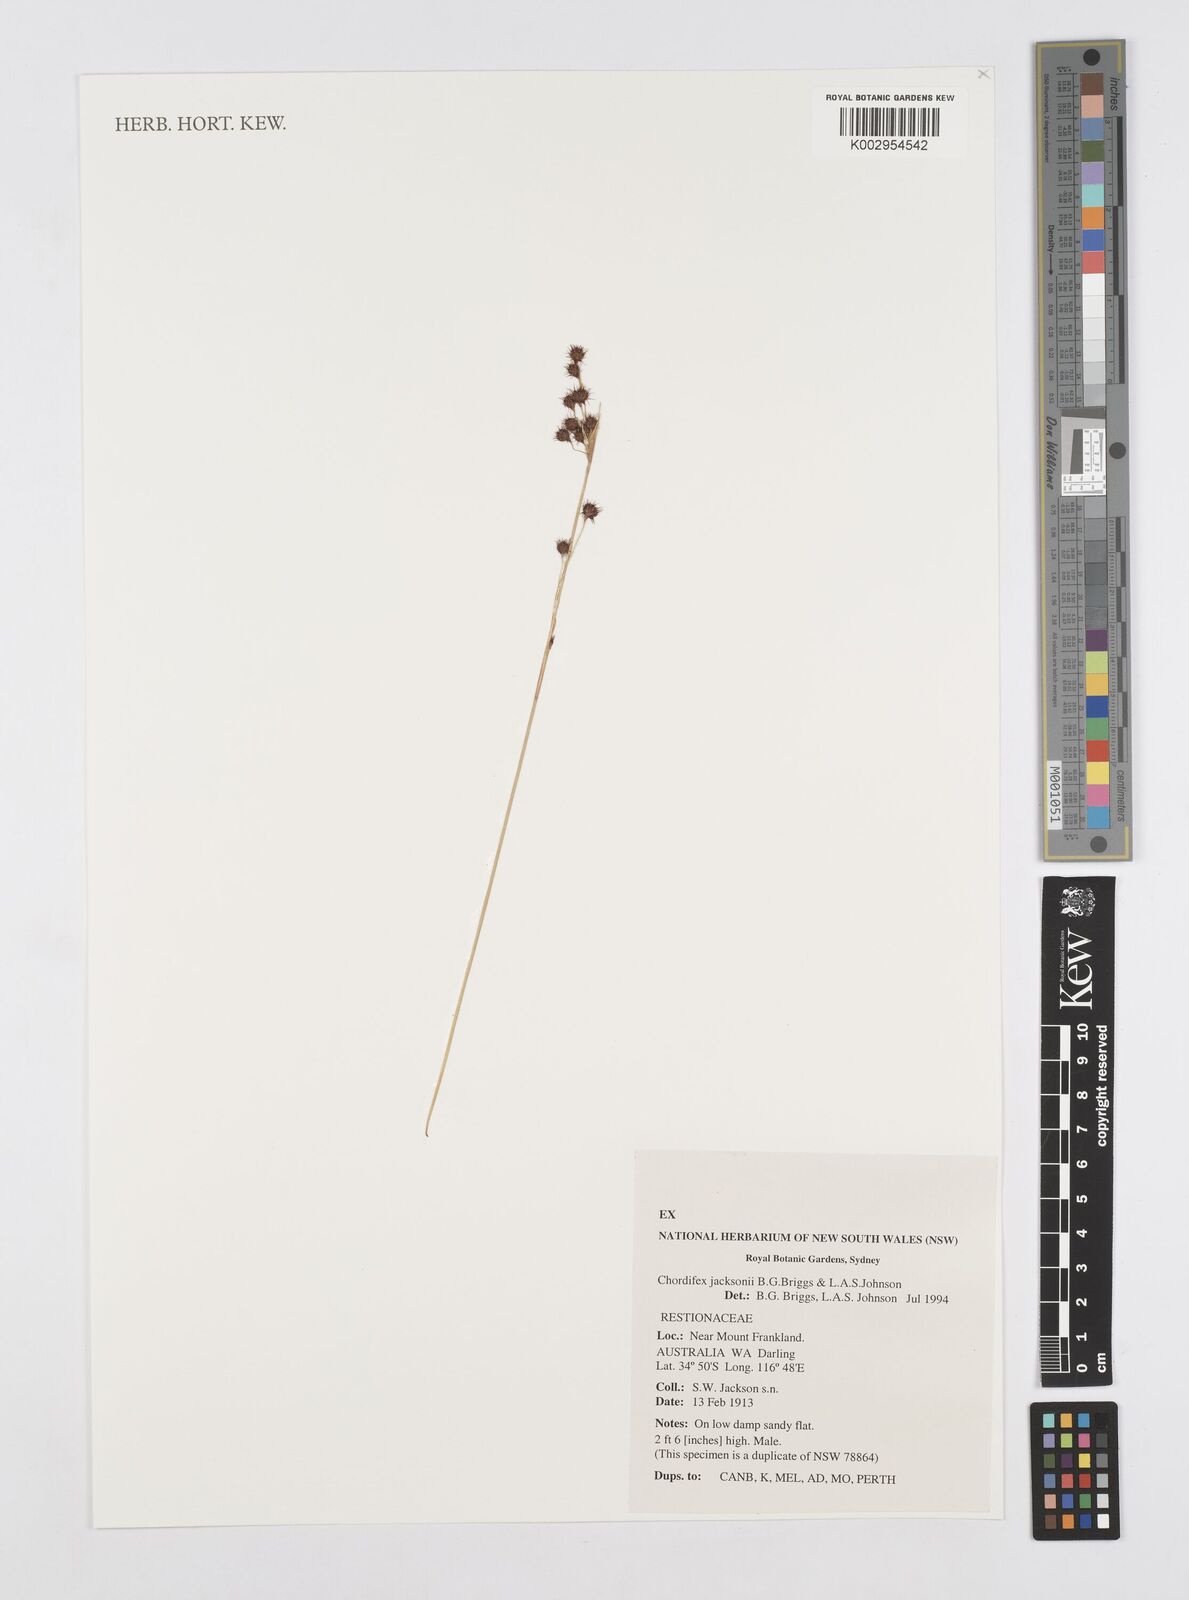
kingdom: Plantae
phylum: Tracheophyta
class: Liliopsida
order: Poales
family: Restionaceae
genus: Chordifex
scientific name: Chordifex jacksonii
